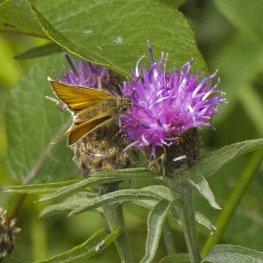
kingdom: Animalia
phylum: Arthropoda
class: Insecta
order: Lepidoptera
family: Hesperiidae
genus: Thymelicus
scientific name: Thymelicus lineola
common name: European Skipper
